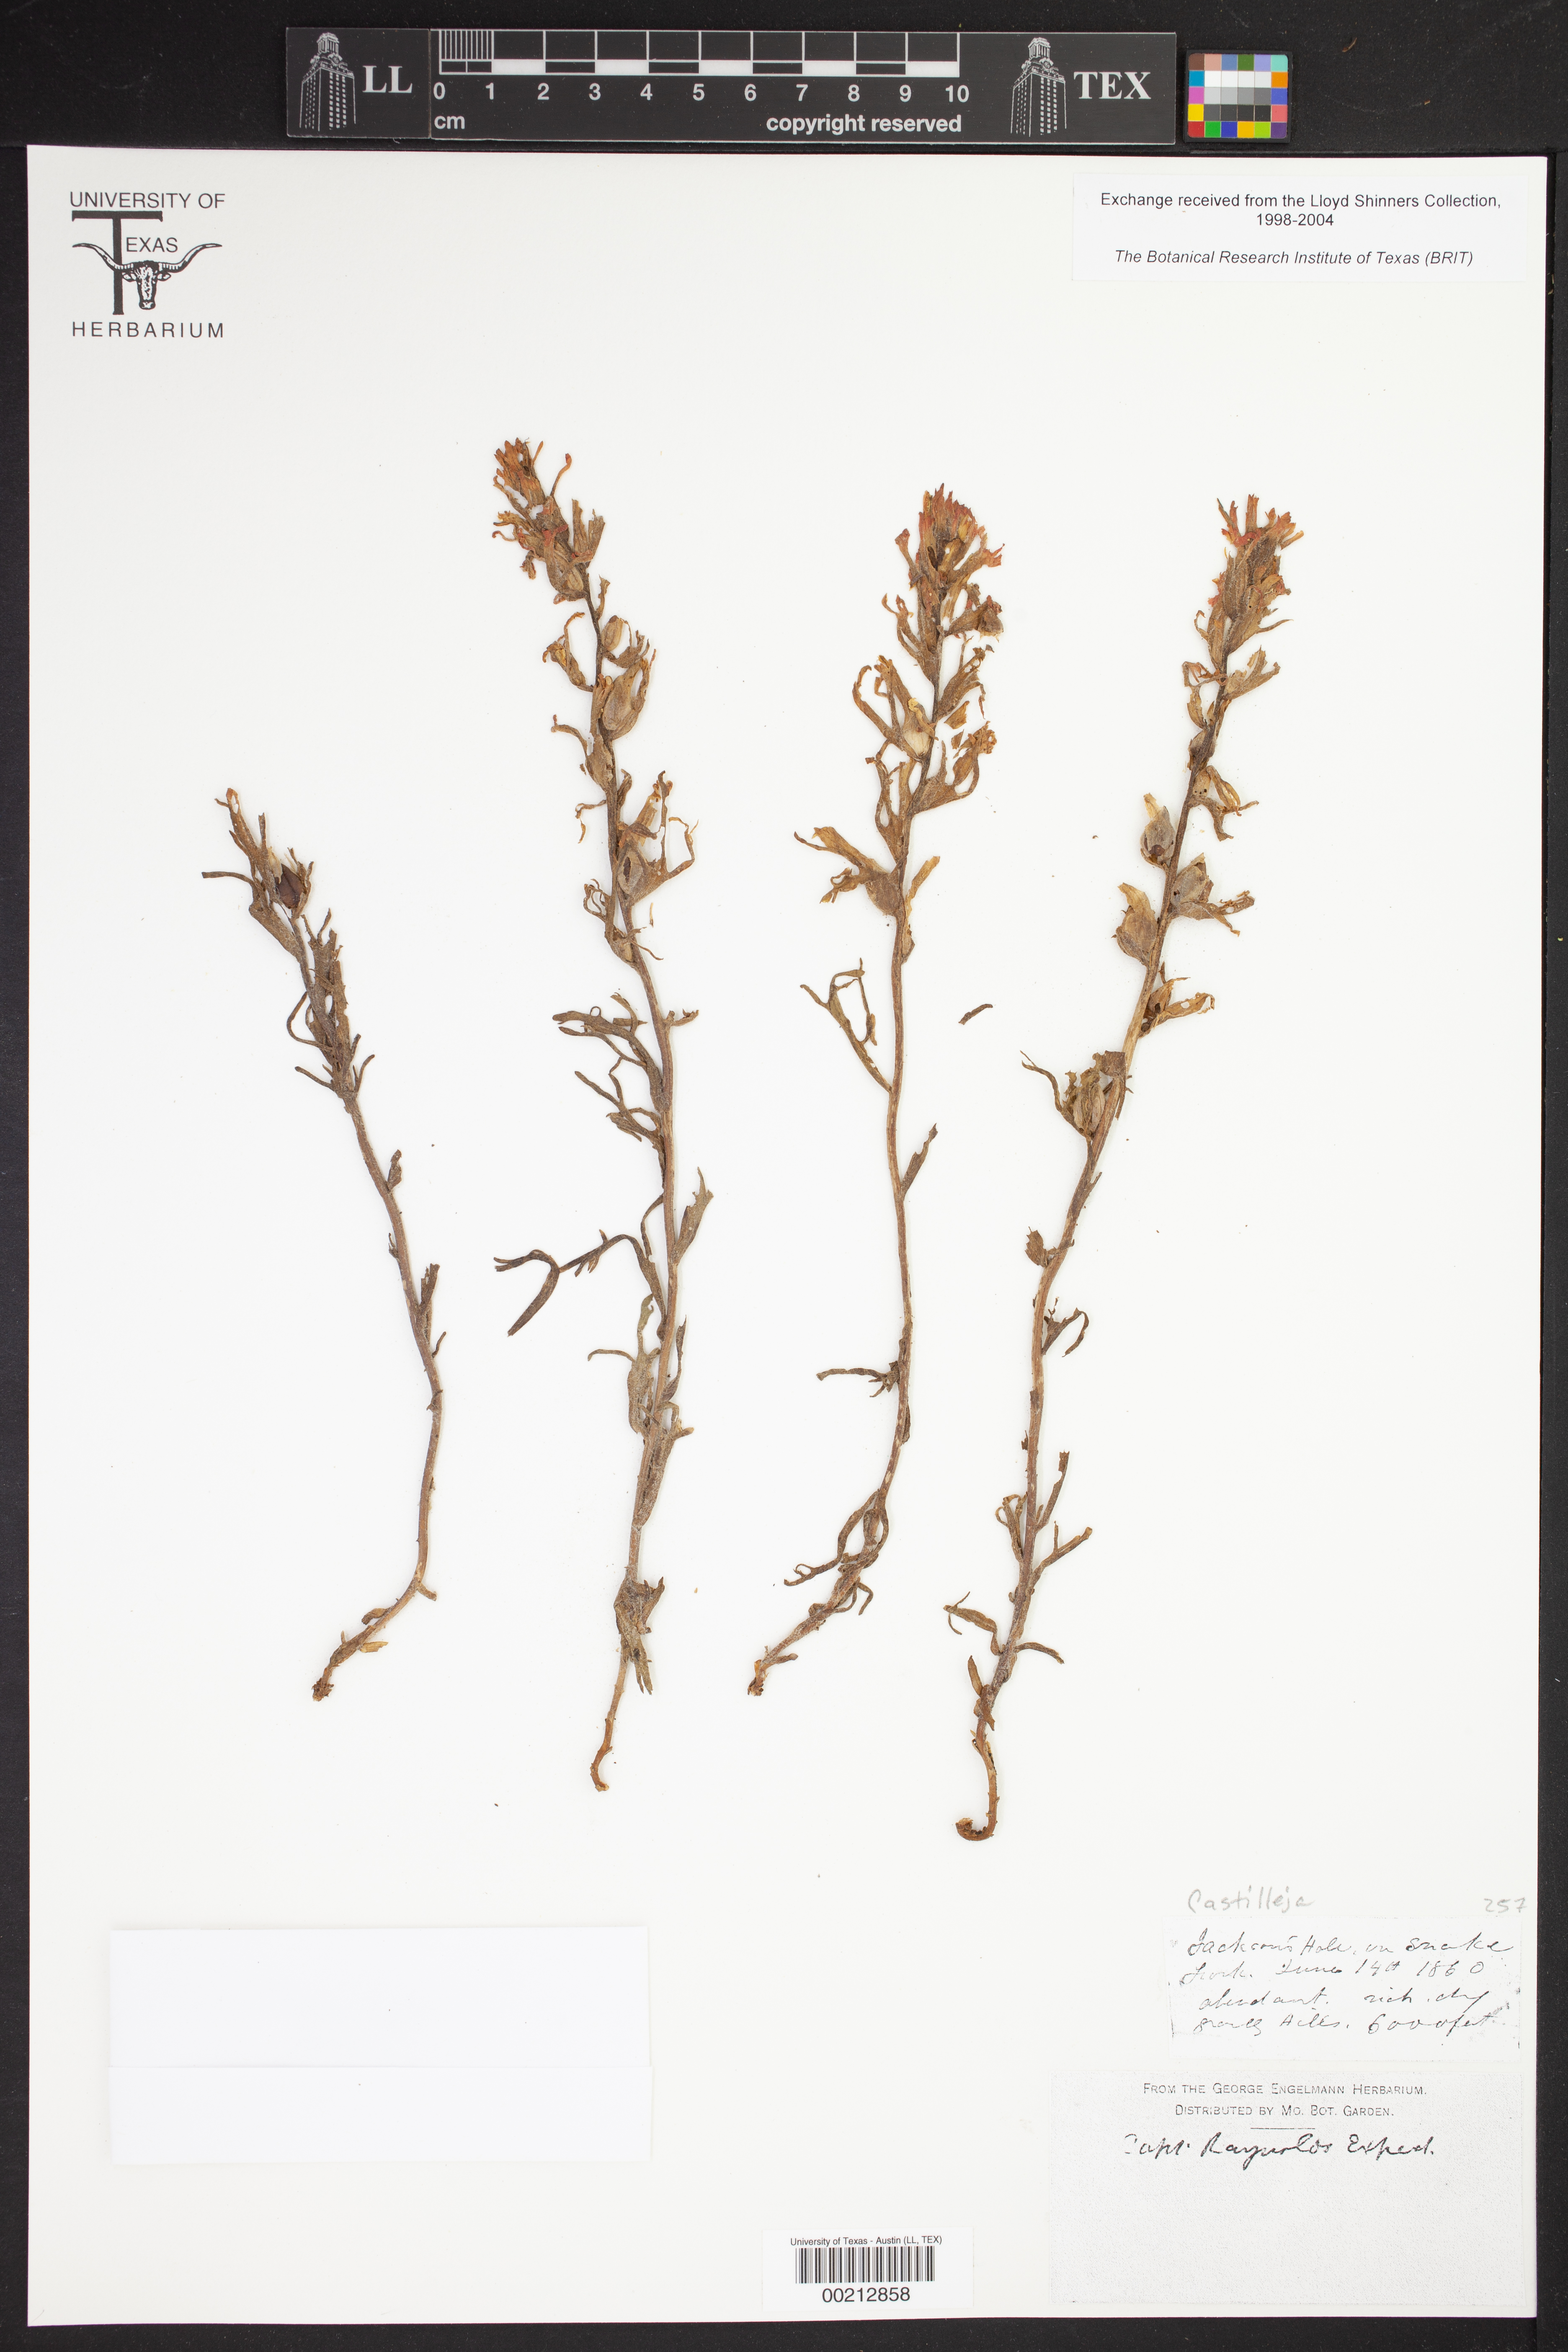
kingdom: Plantae
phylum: Tracheophyta
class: Magnoliopsida
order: Lamiales
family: Orobanchaceae
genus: Castilleja
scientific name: Castilleja
